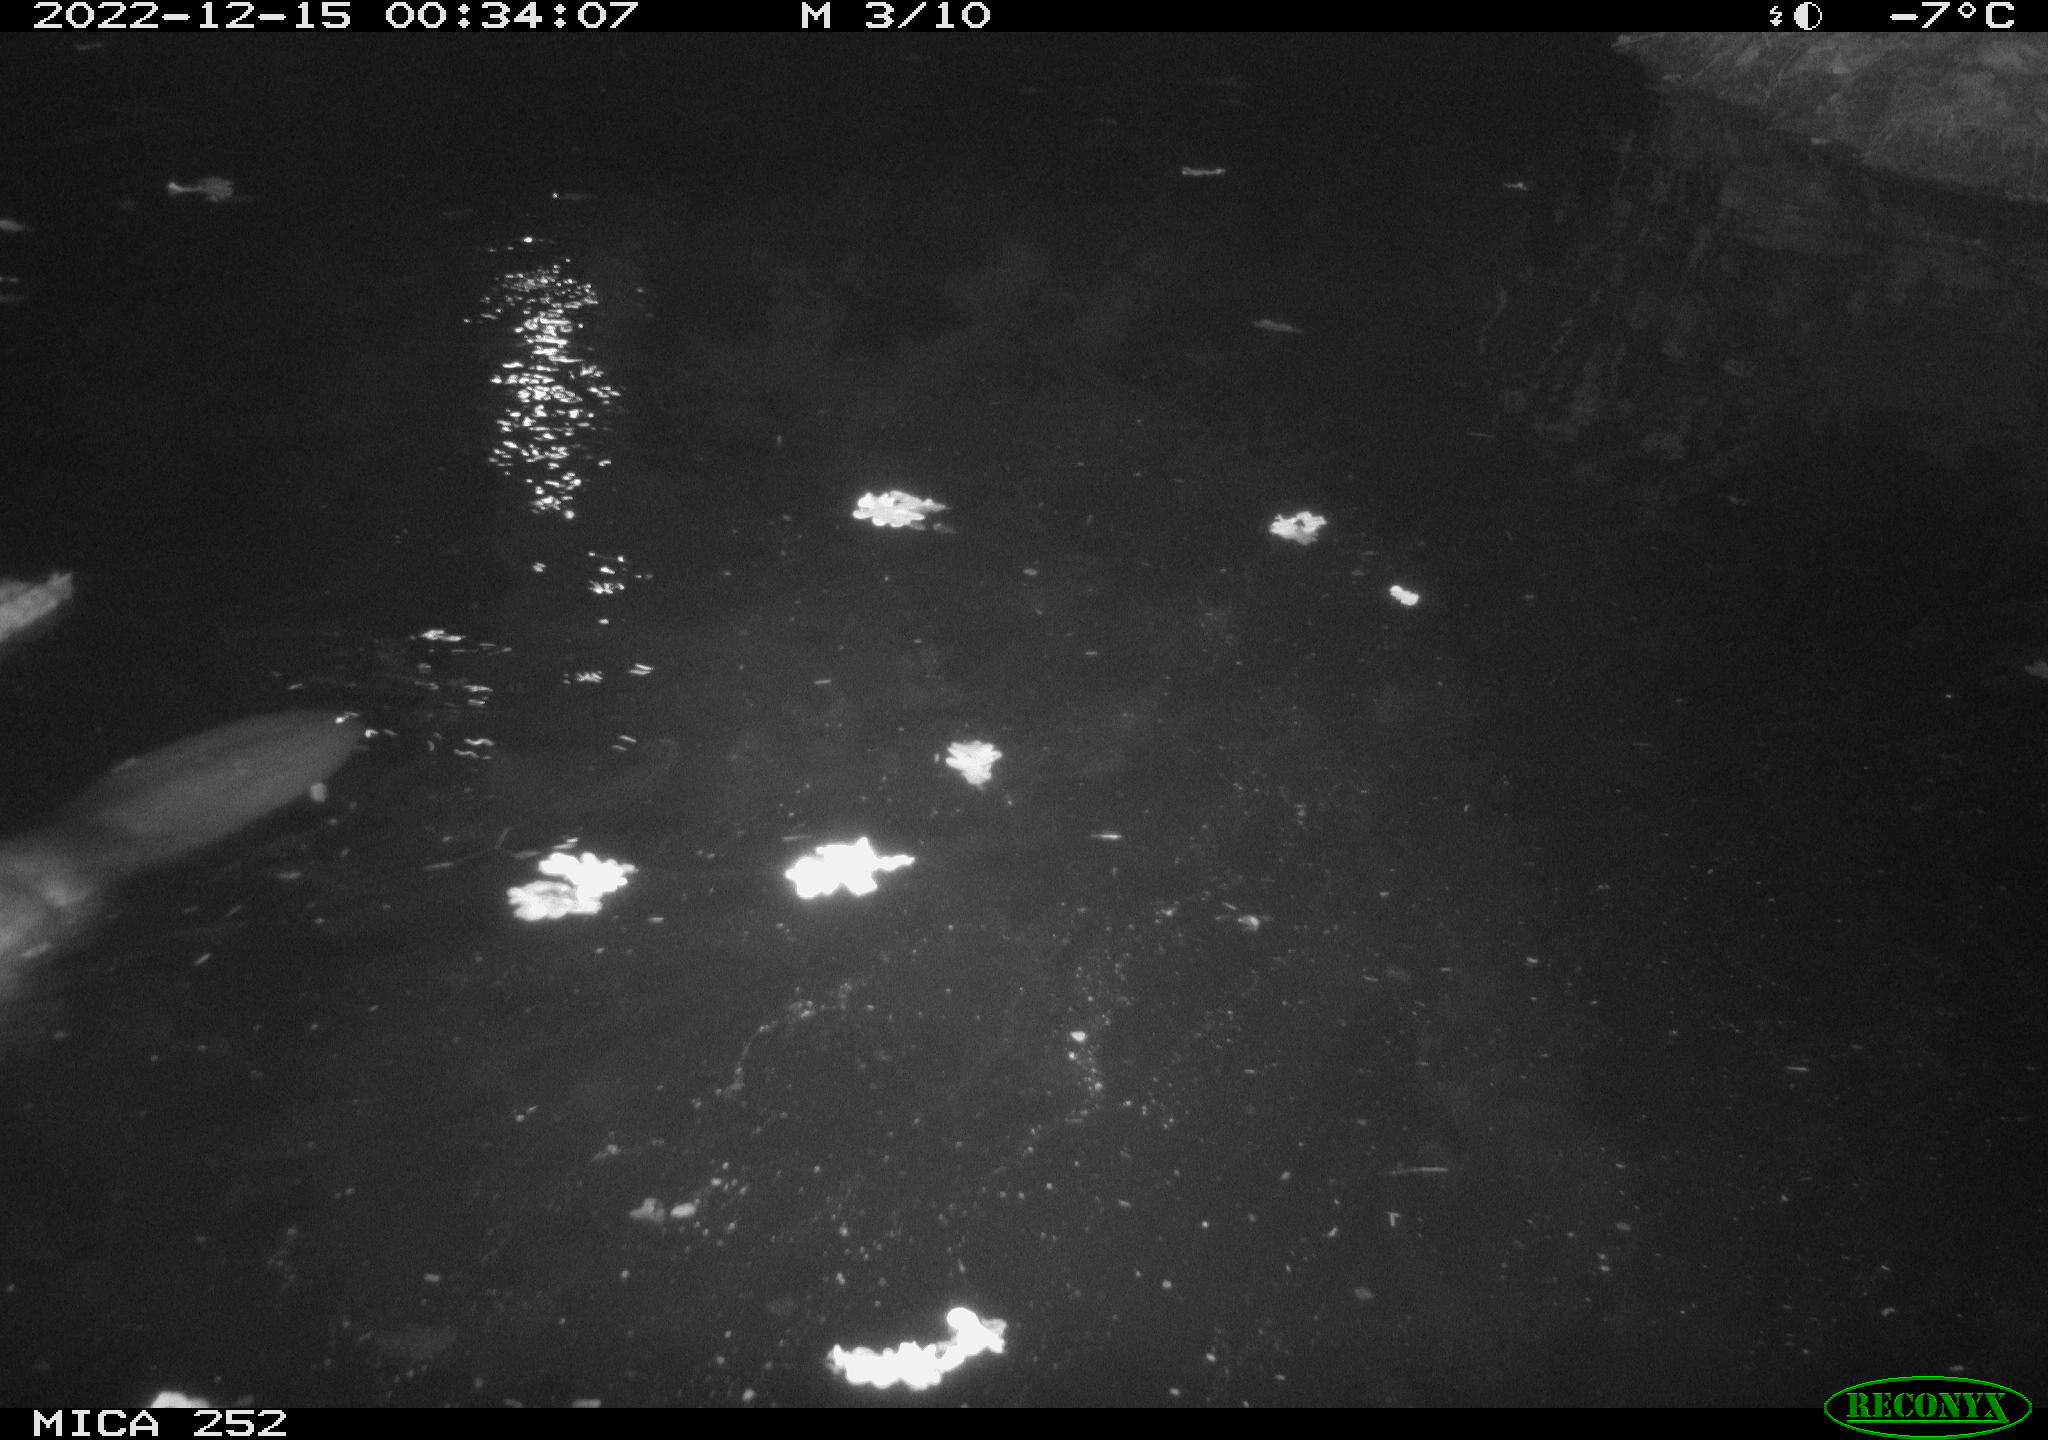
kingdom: Animalia
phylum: Chordata
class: Mammalia
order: Rodentia
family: Castoridae
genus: Castor
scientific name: Castor fiber
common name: Eurasian beaver
